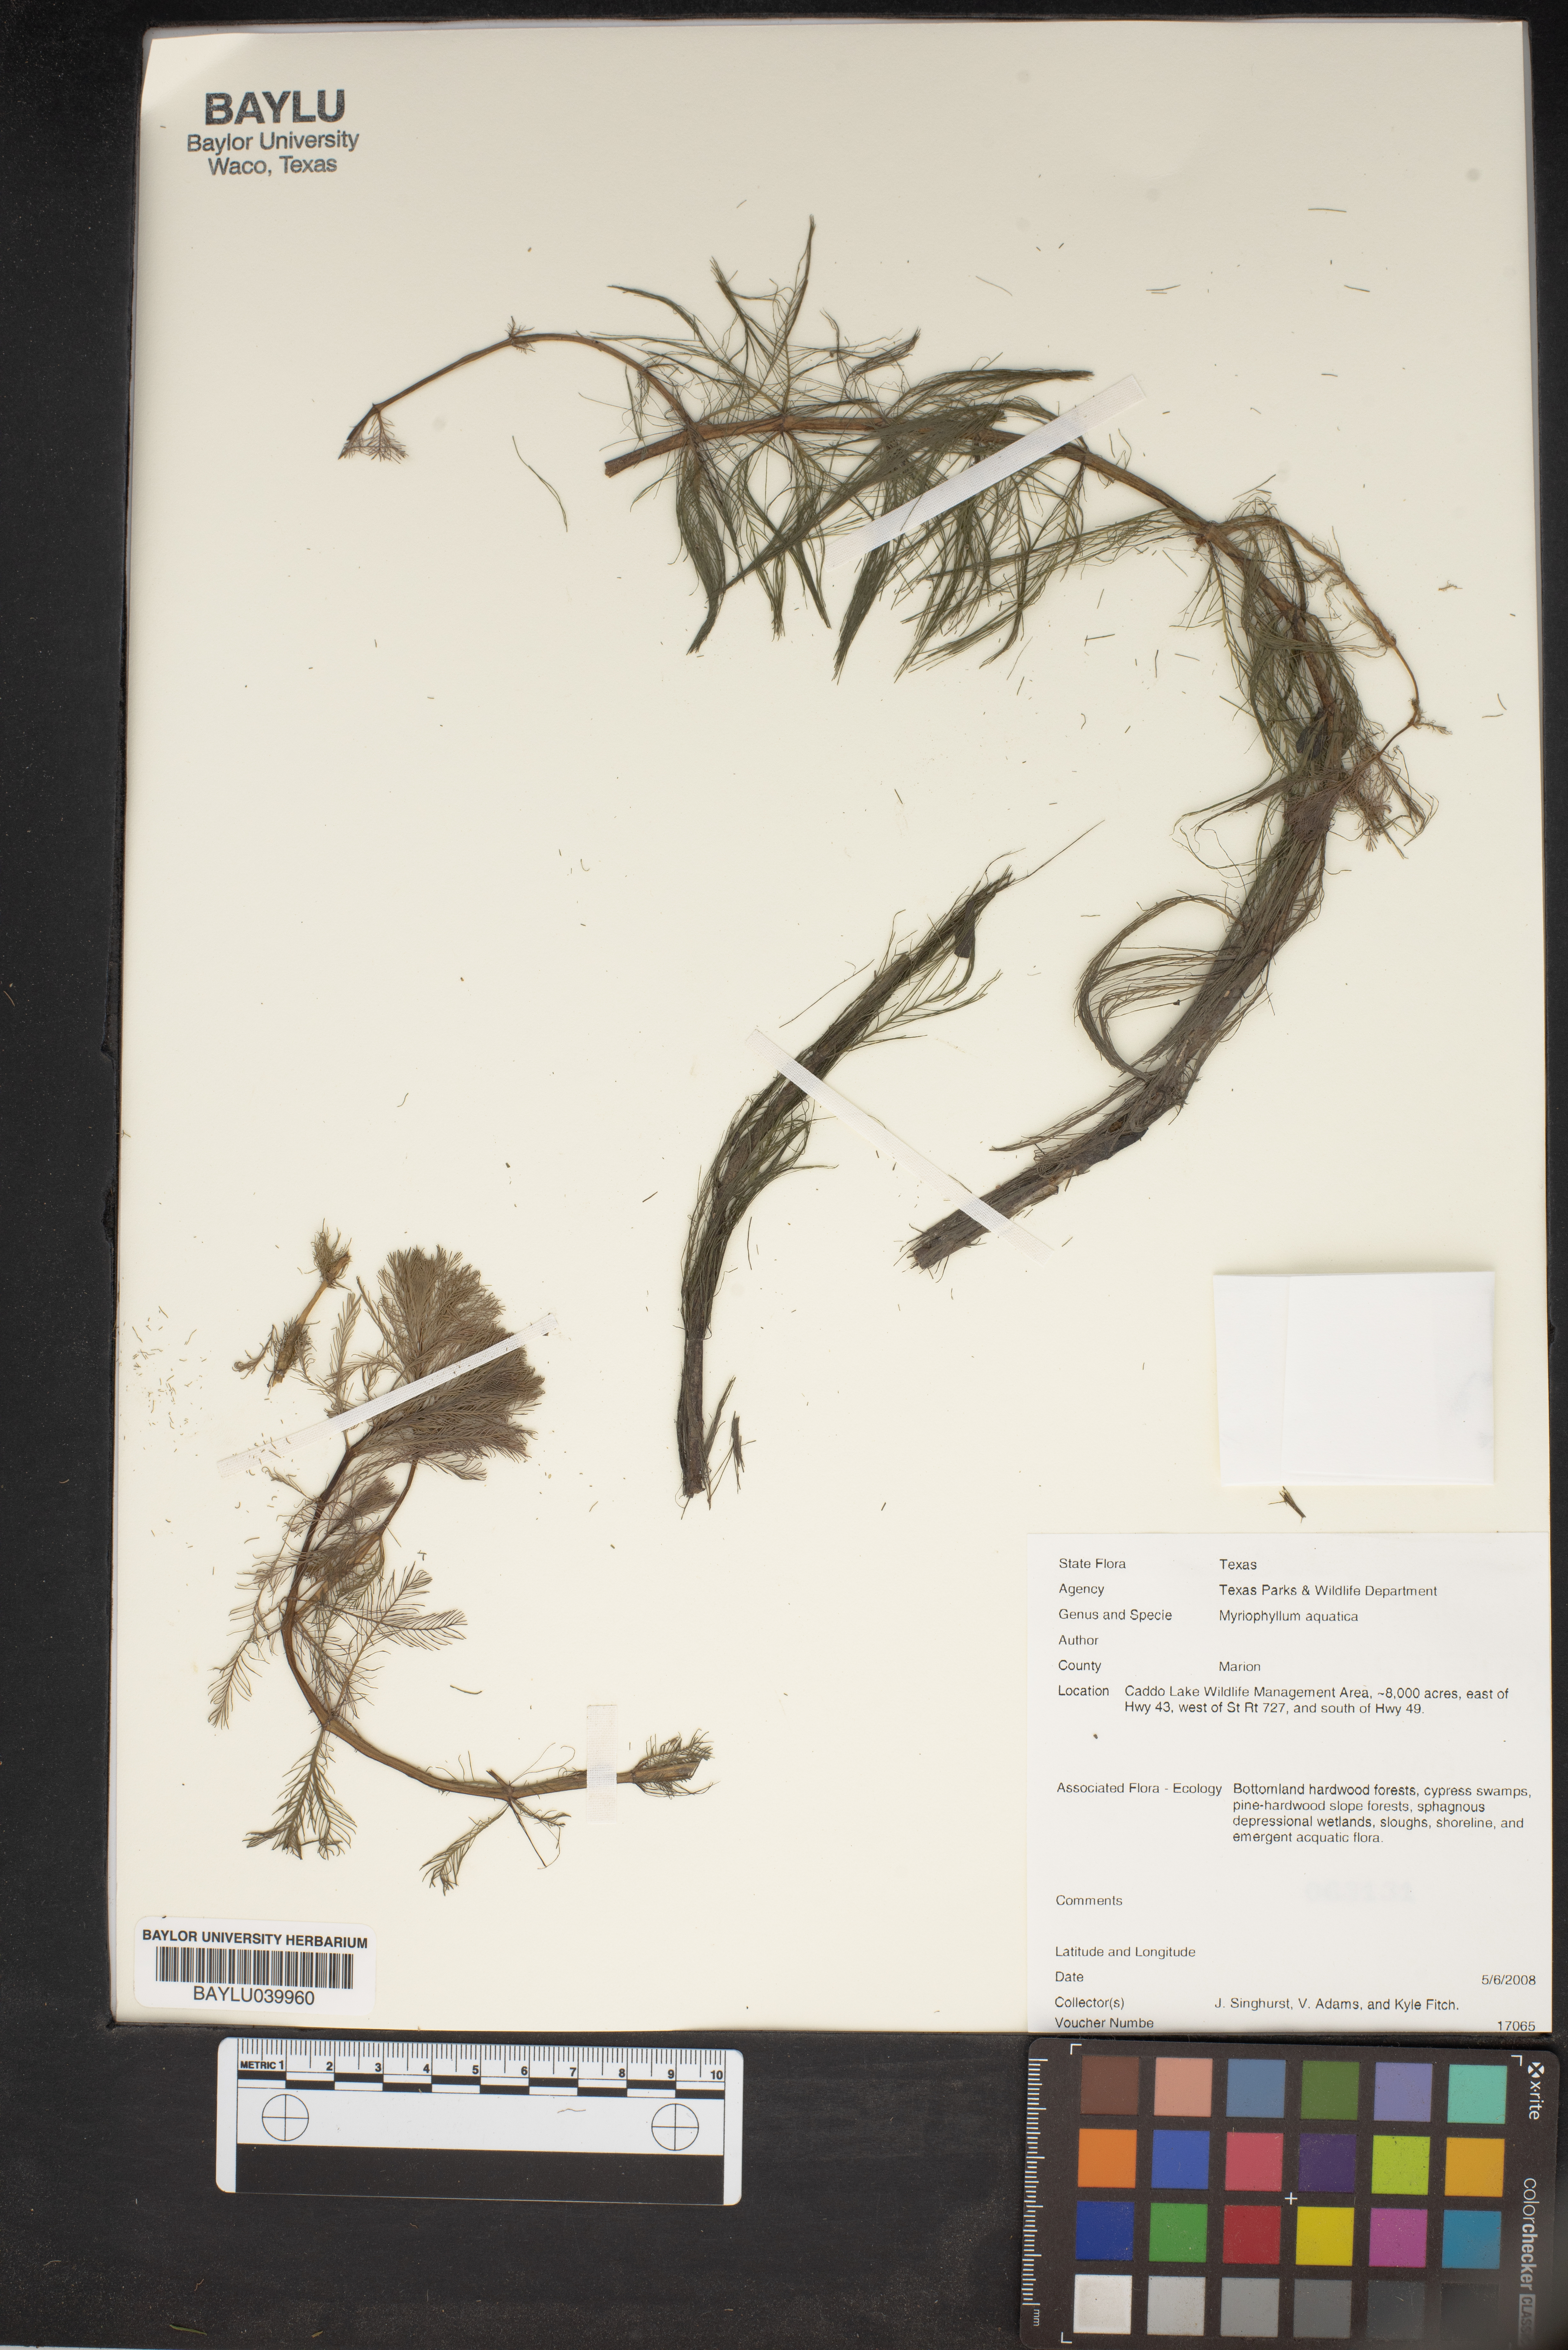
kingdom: Plantae
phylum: Tracheophyta
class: Magnoliopsida
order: Saxifragales
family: Haloragaceae
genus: Myriophyllum
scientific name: Myriophyllum aquaticum
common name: Parrot's feather
